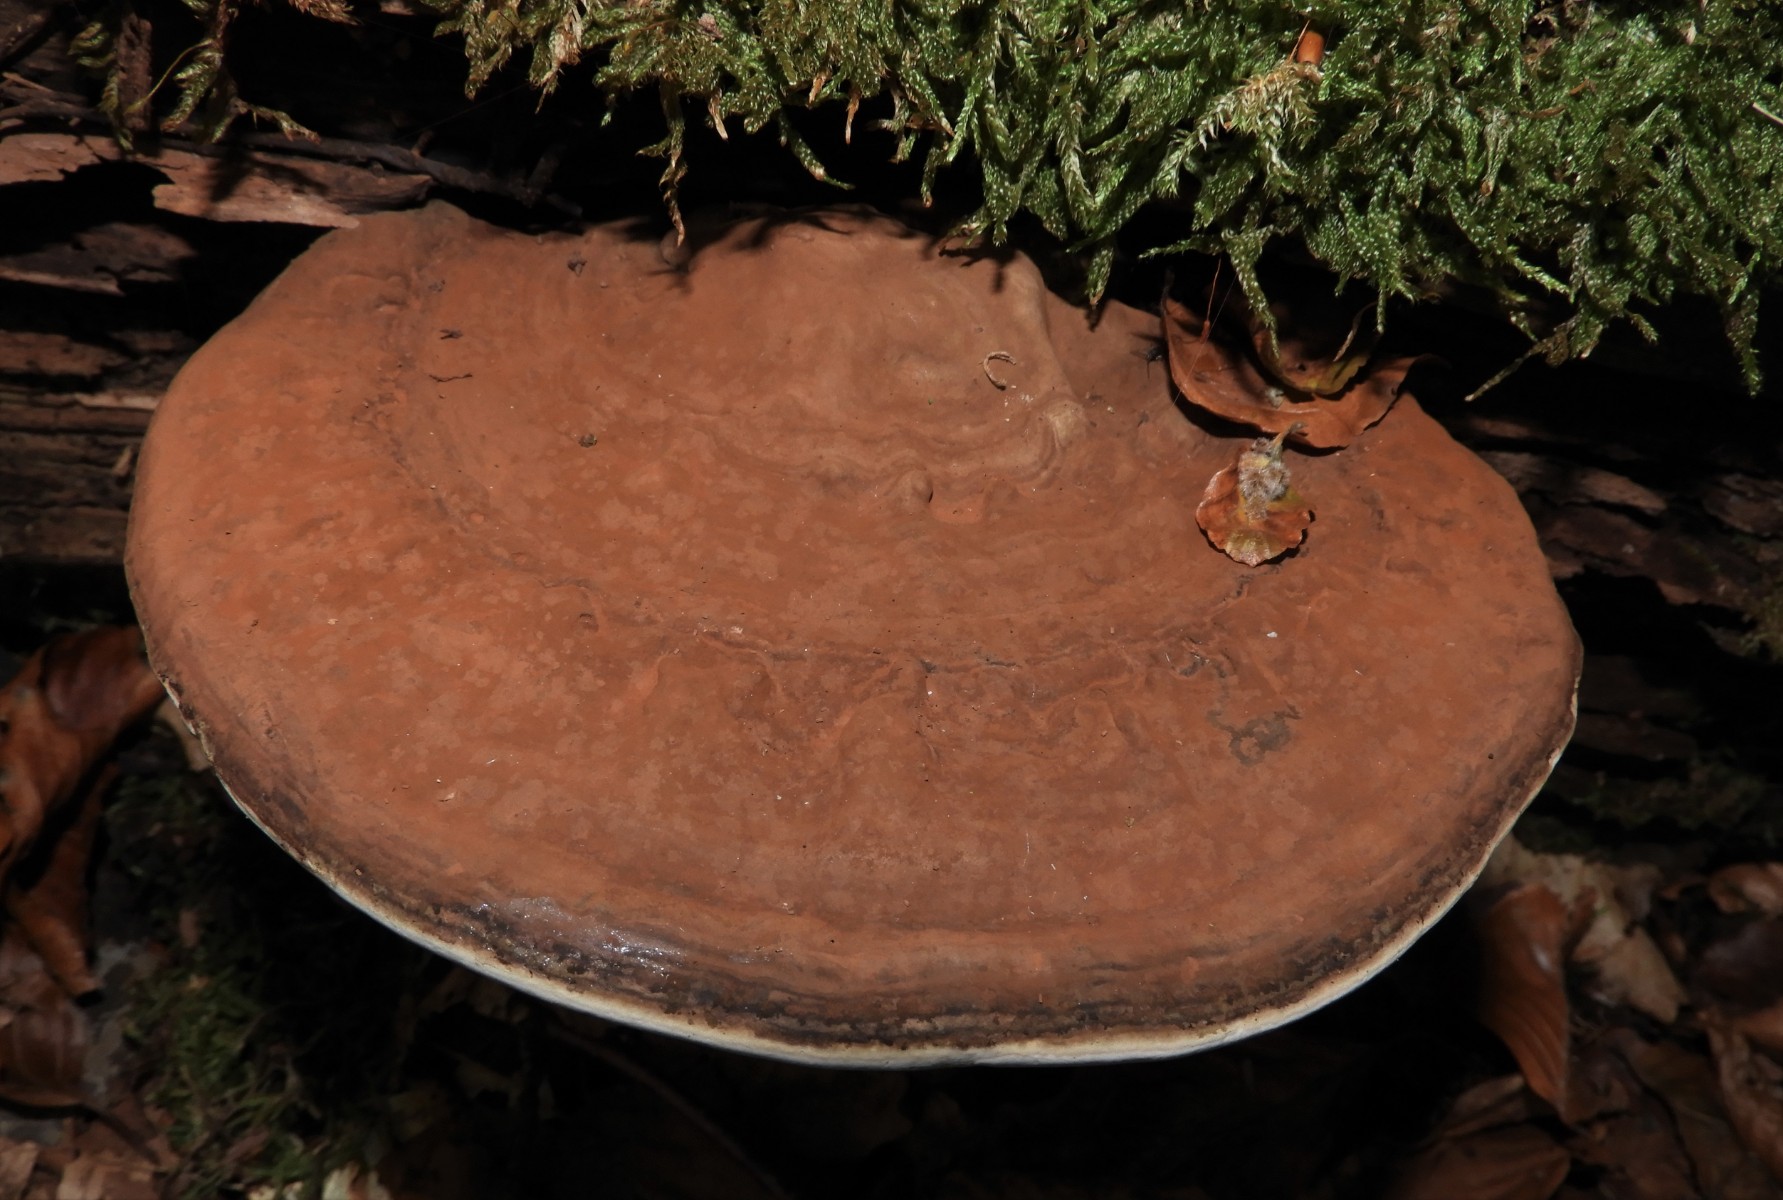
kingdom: Fungi
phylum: Basidiomycota
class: Agaricomycetes
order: Polyporales
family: Polyporaceae
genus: Ganoderma
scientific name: Ganoderma applanatum
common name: flad lakporesvamp
